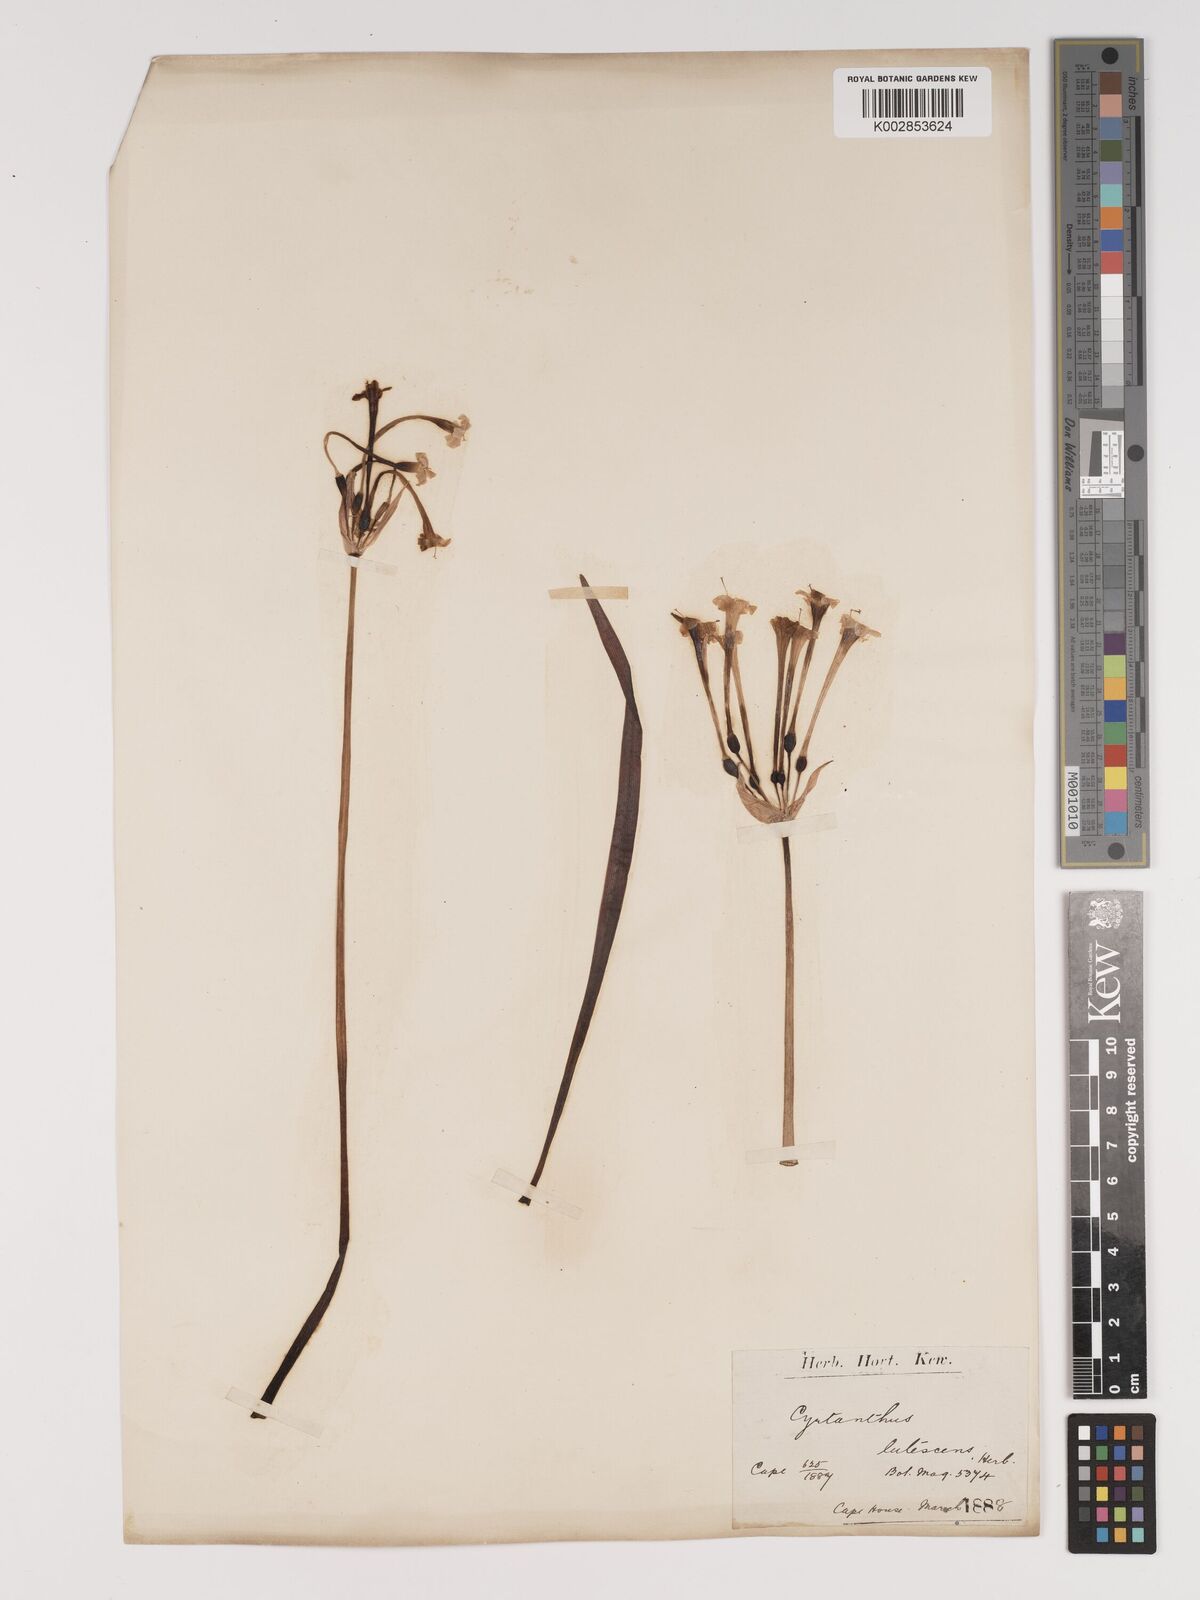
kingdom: Plantae
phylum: Tracheophyta
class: Liliopsida
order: Asparagales
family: Amaryllidaceae
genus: Cyrtanthus
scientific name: Cyrtanthus ochroleucus
